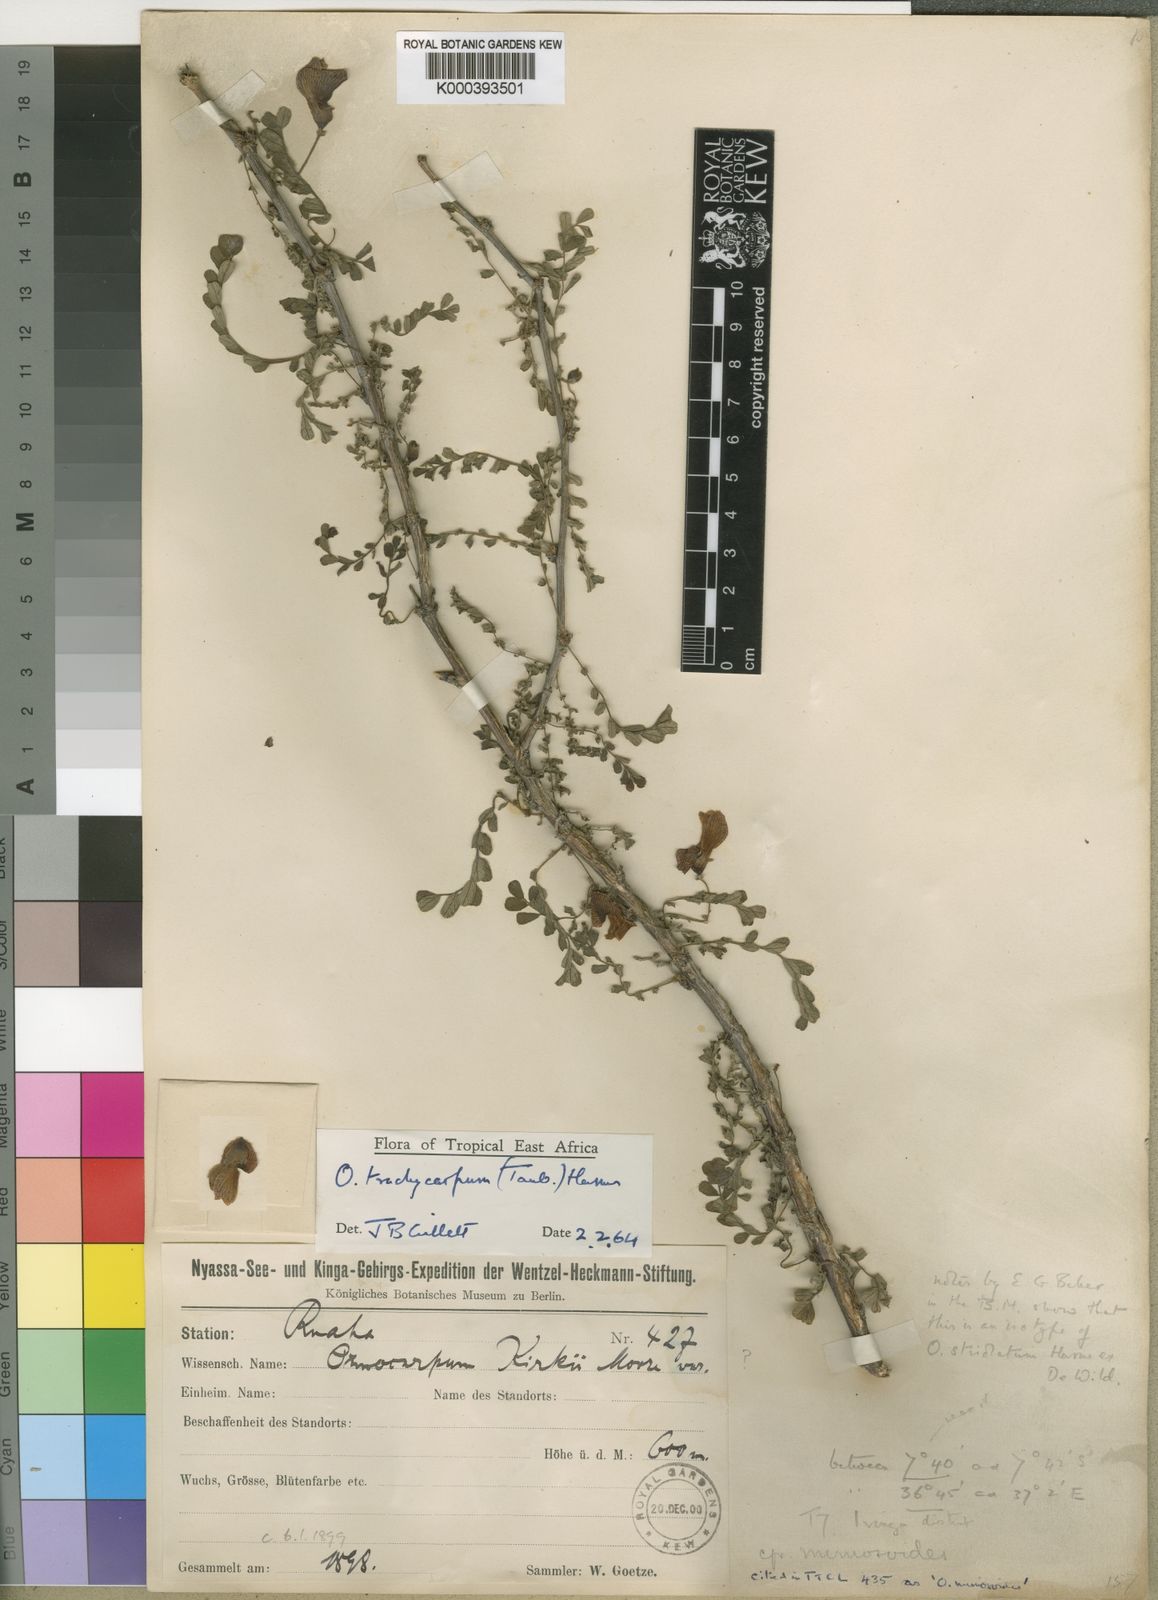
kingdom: Plantae
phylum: Tracheophyta
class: Magnoliopsida
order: Fabales
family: Fabaceae
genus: Ormocarpum
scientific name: Ormocarpum trachycarpum
